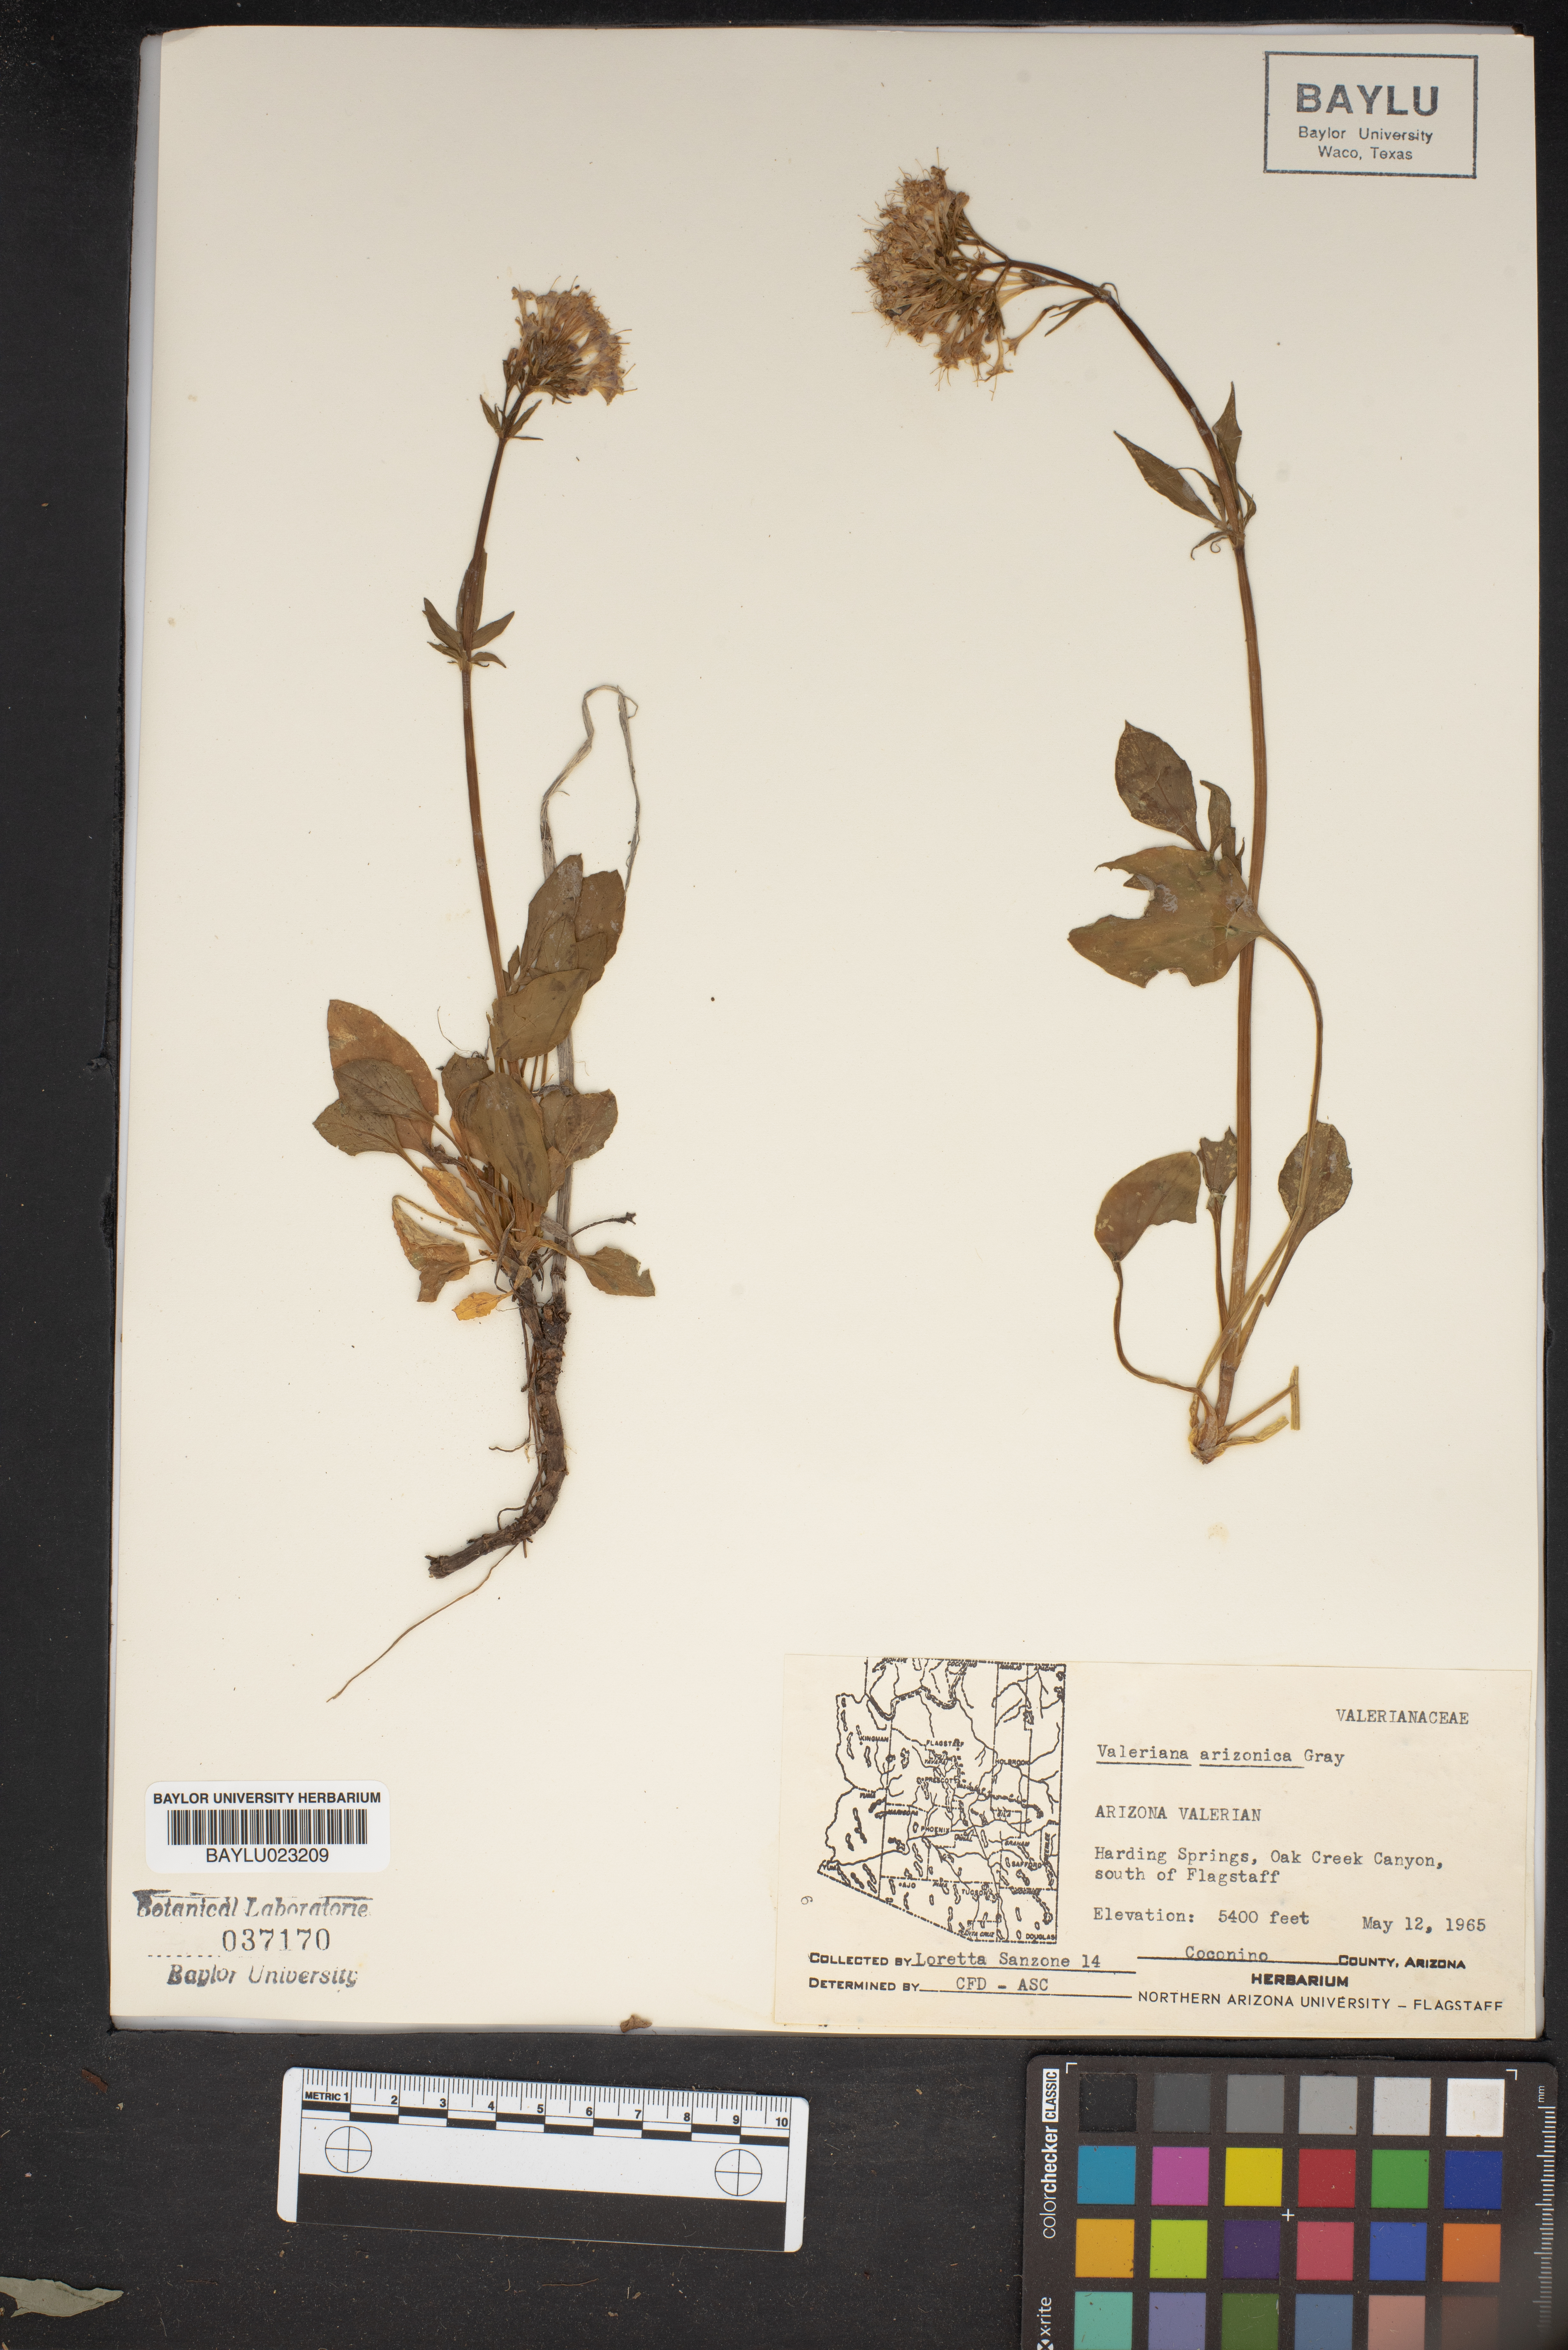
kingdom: Plantae
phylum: Tracheophyta
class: Magnoliopsida
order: Dipsacales
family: Caprifoliaceae
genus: Valeriana
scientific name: Valeriana arizonica
